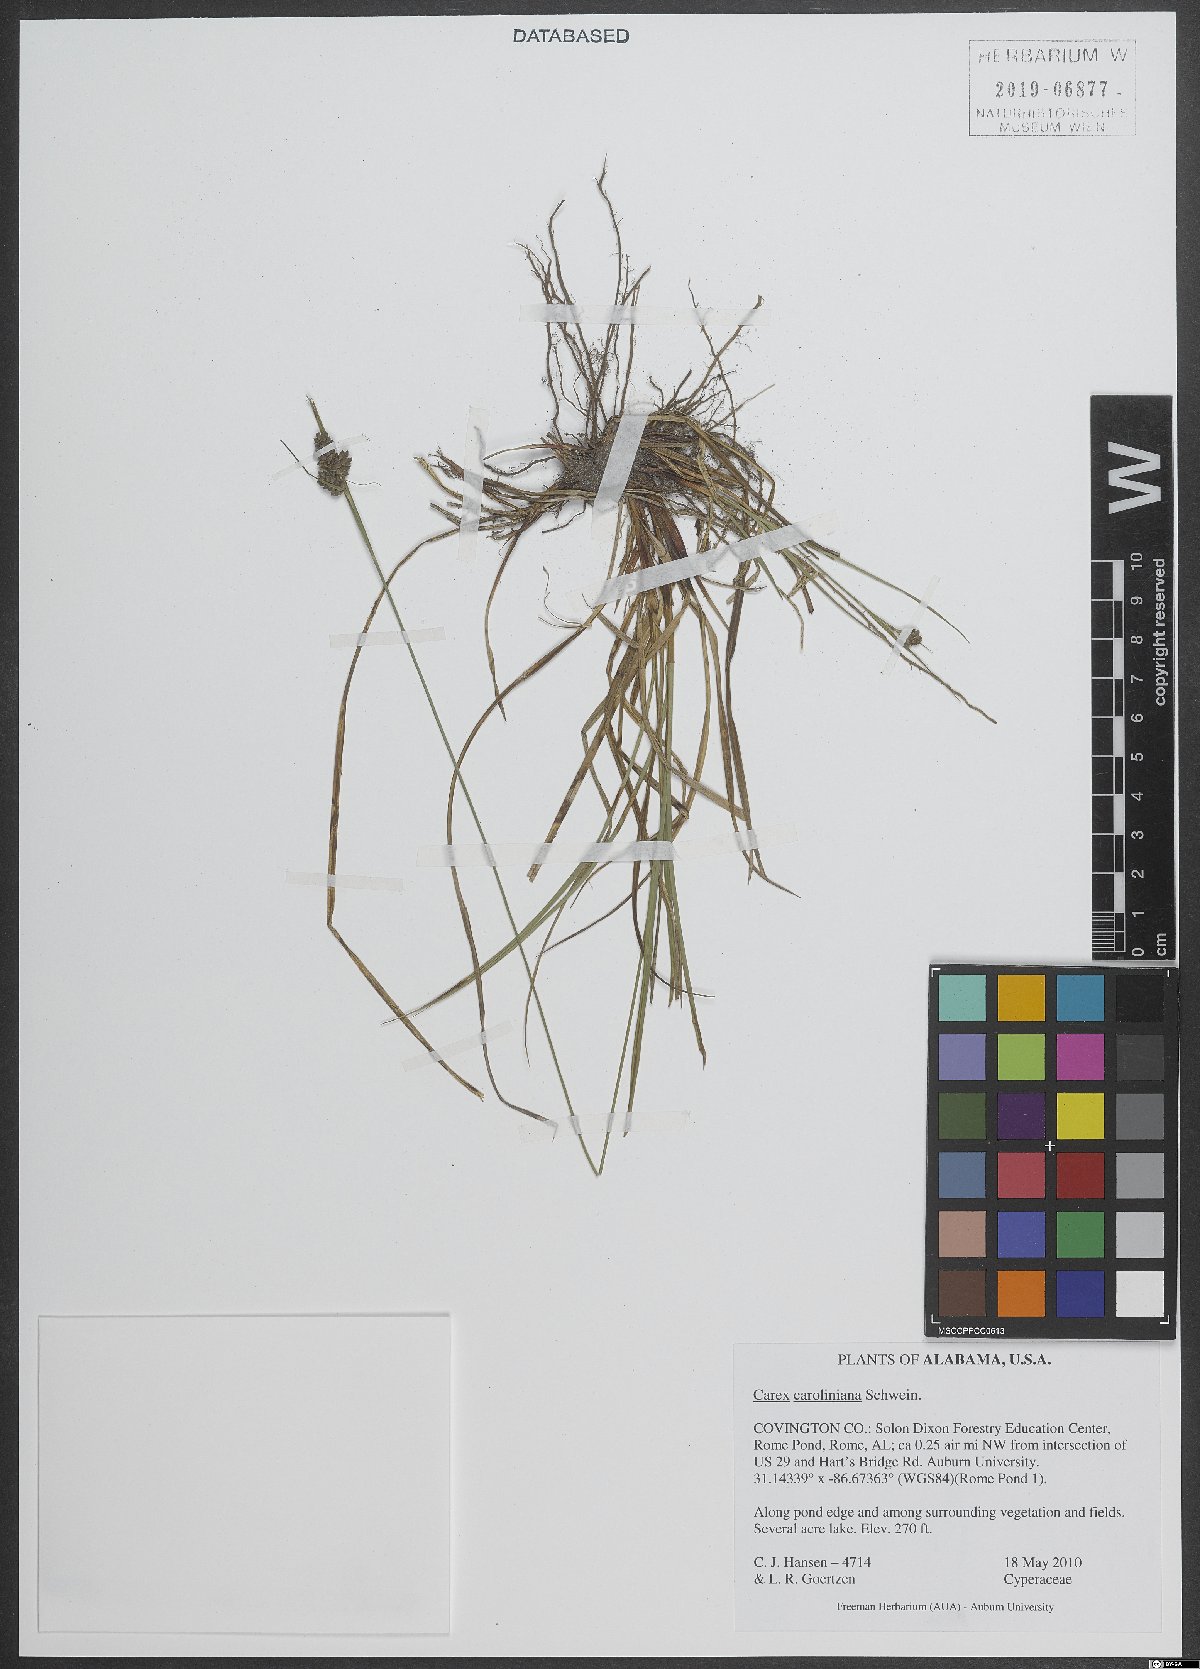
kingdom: Plantae
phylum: Tracheophyta
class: Liliopsida
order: Poales
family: Cyperaceae
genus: Carex
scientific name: Carex caroliniana
